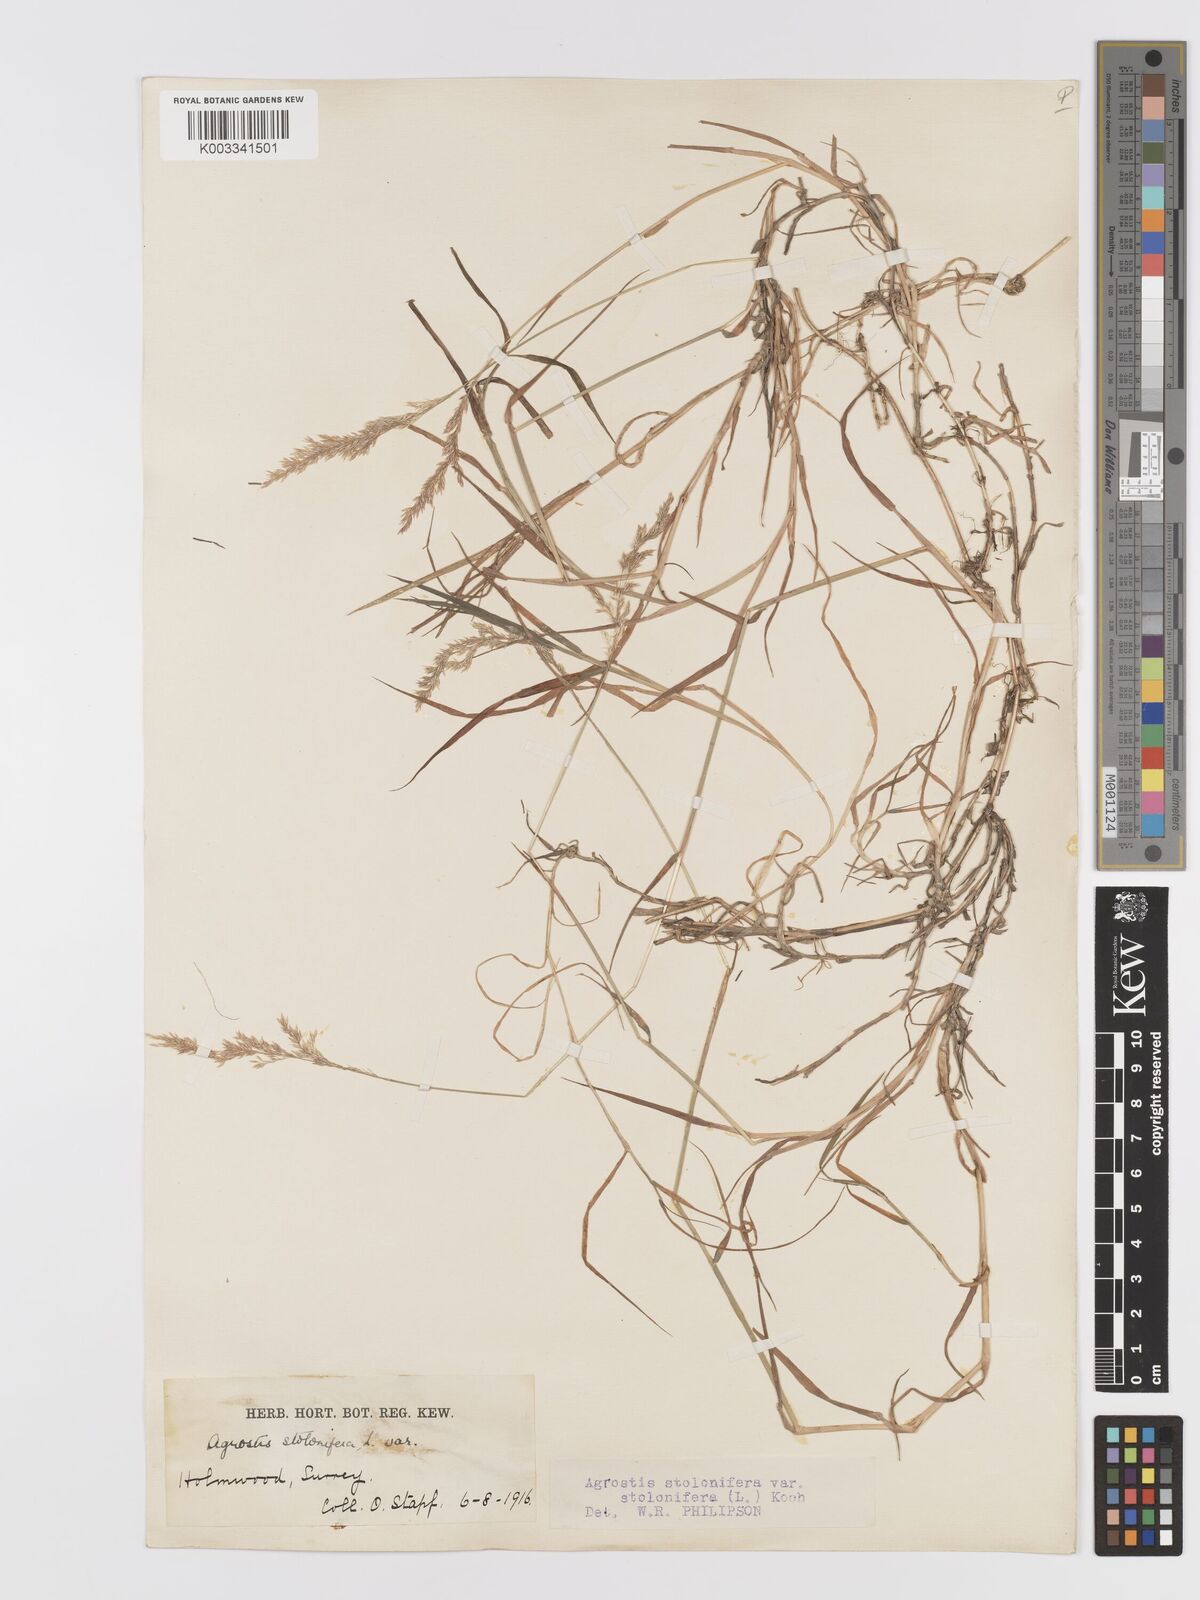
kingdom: Plantae
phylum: Tracheophyta
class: Liliopsida
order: Poales
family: Poaceae
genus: Agrostis
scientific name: Agrostis stolonifera
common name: Creeping bentgrass
